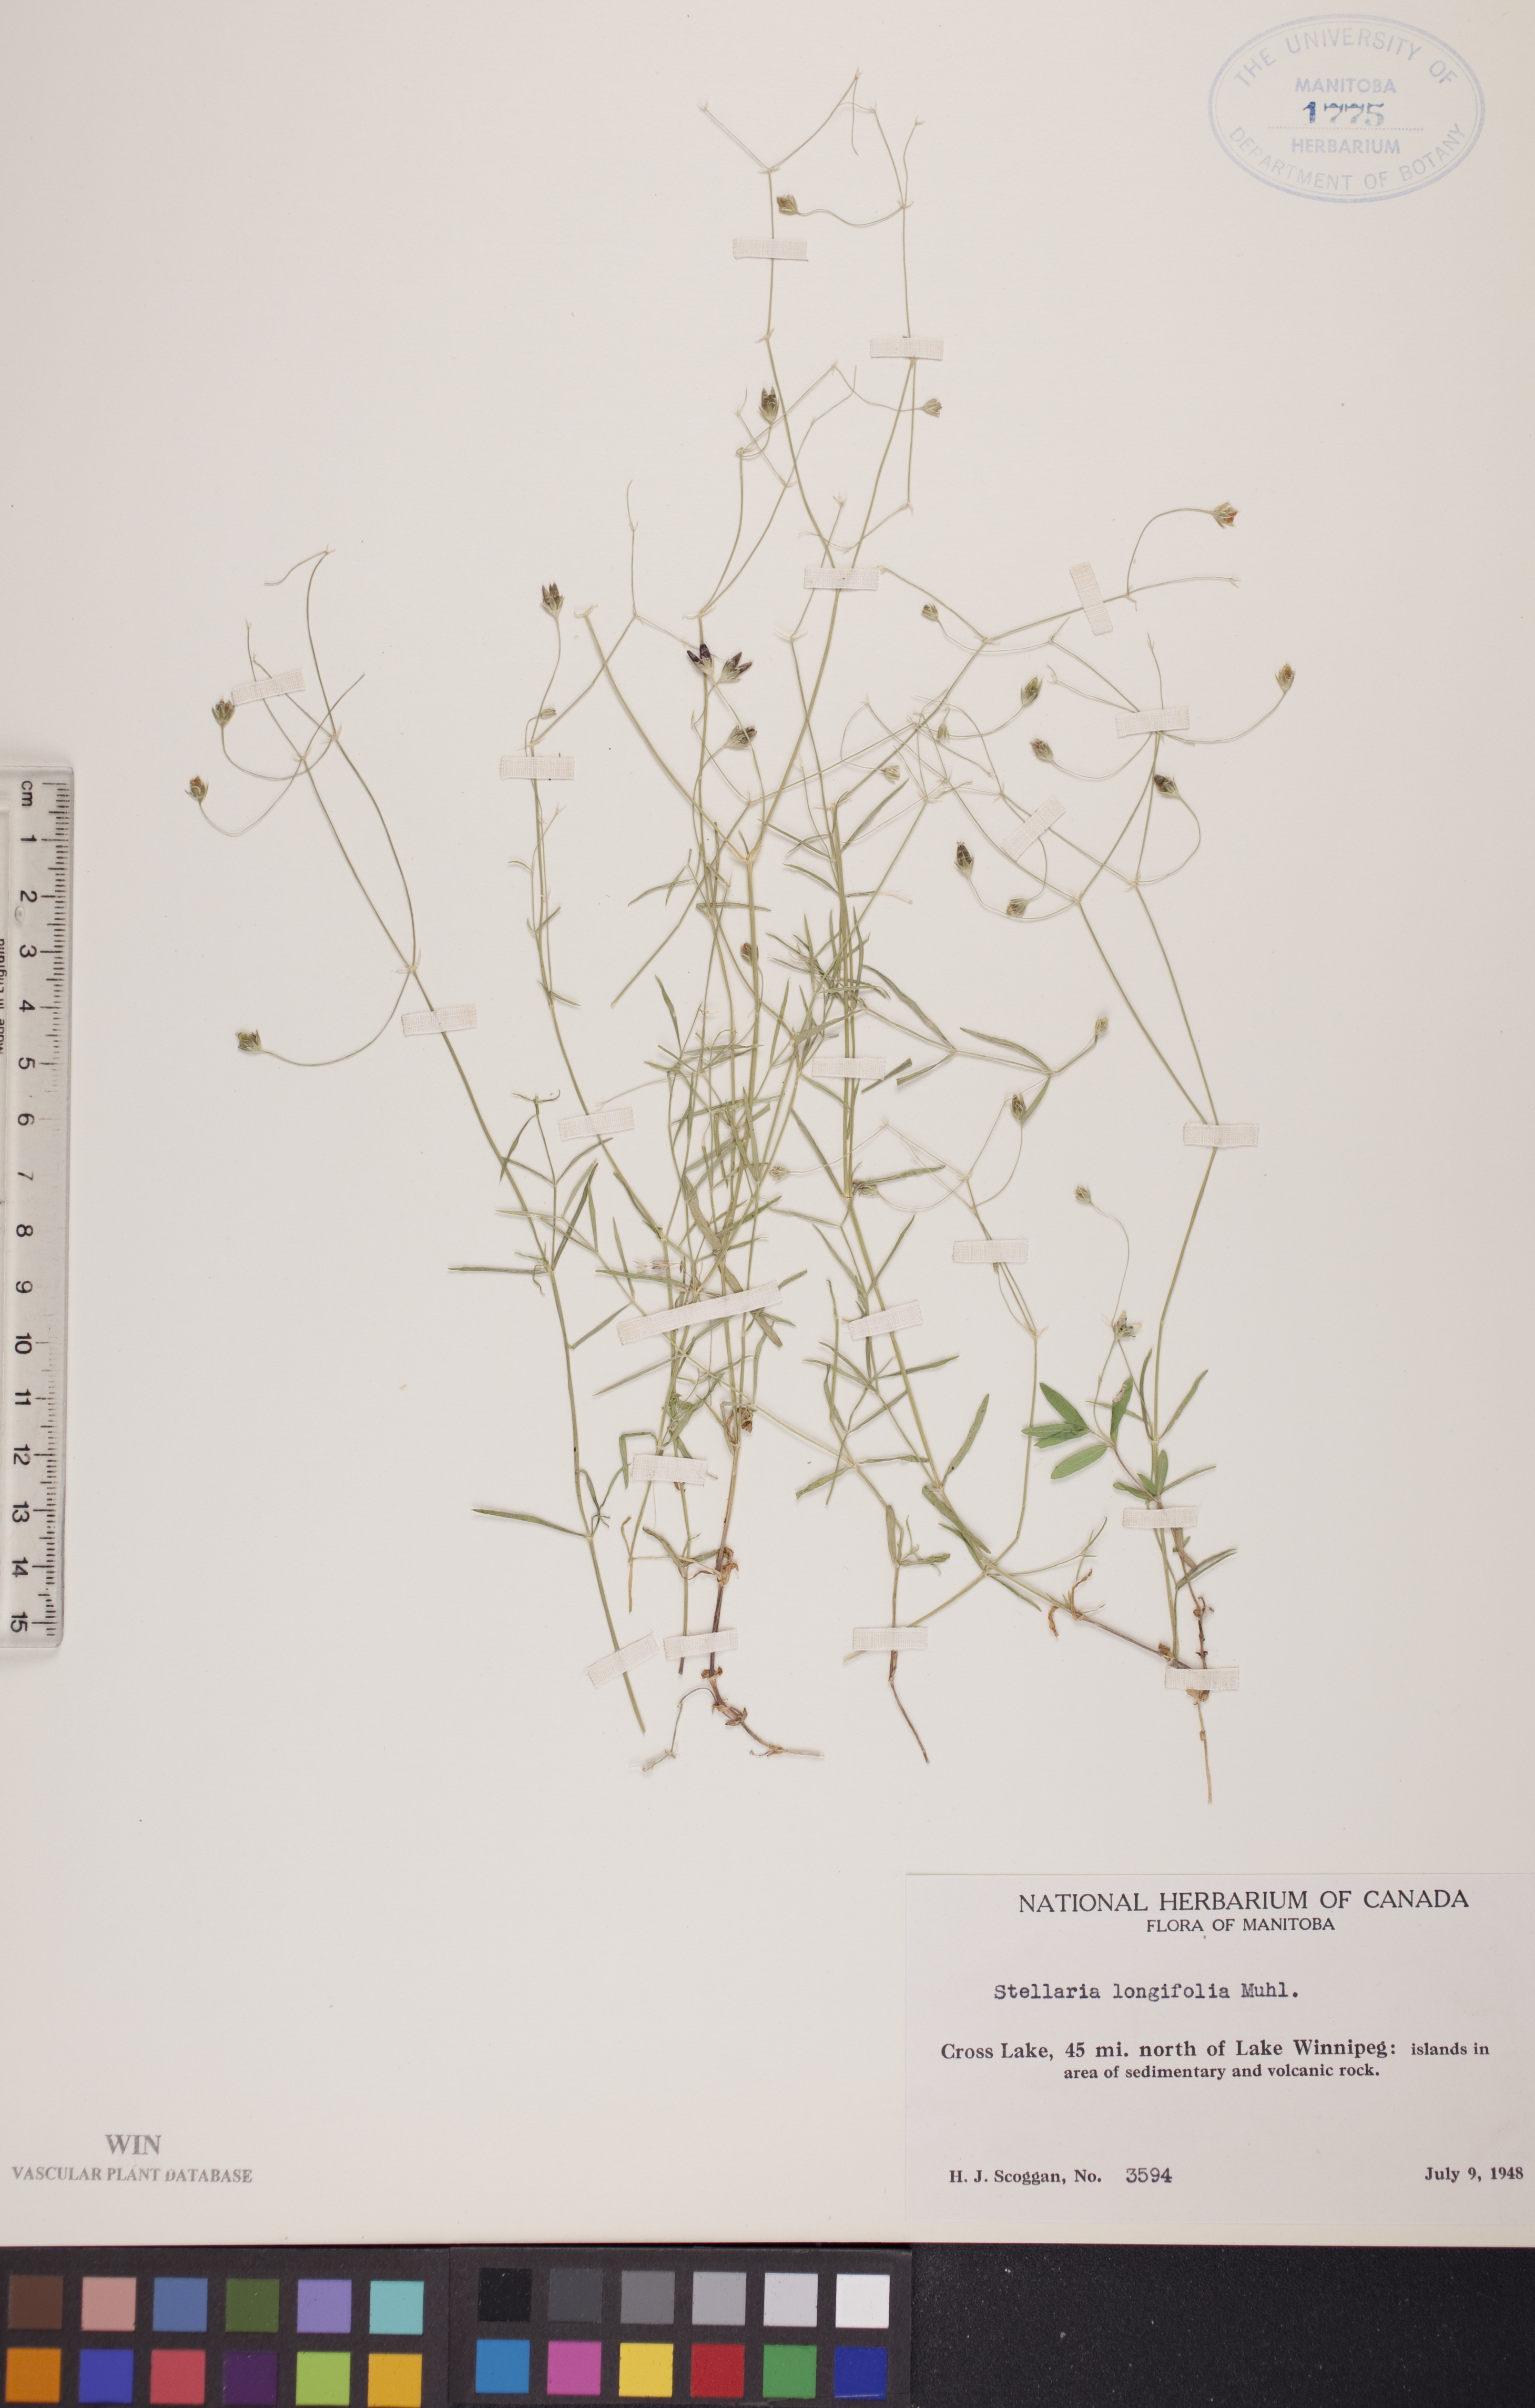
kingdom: Plantae
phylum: Tracheophyta
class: Magnoliopsida
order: Caryophyllales
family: Caryophyllaceae
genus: Stellaria
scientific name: Stellaria longifolia
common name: Long-leaved chickweed
